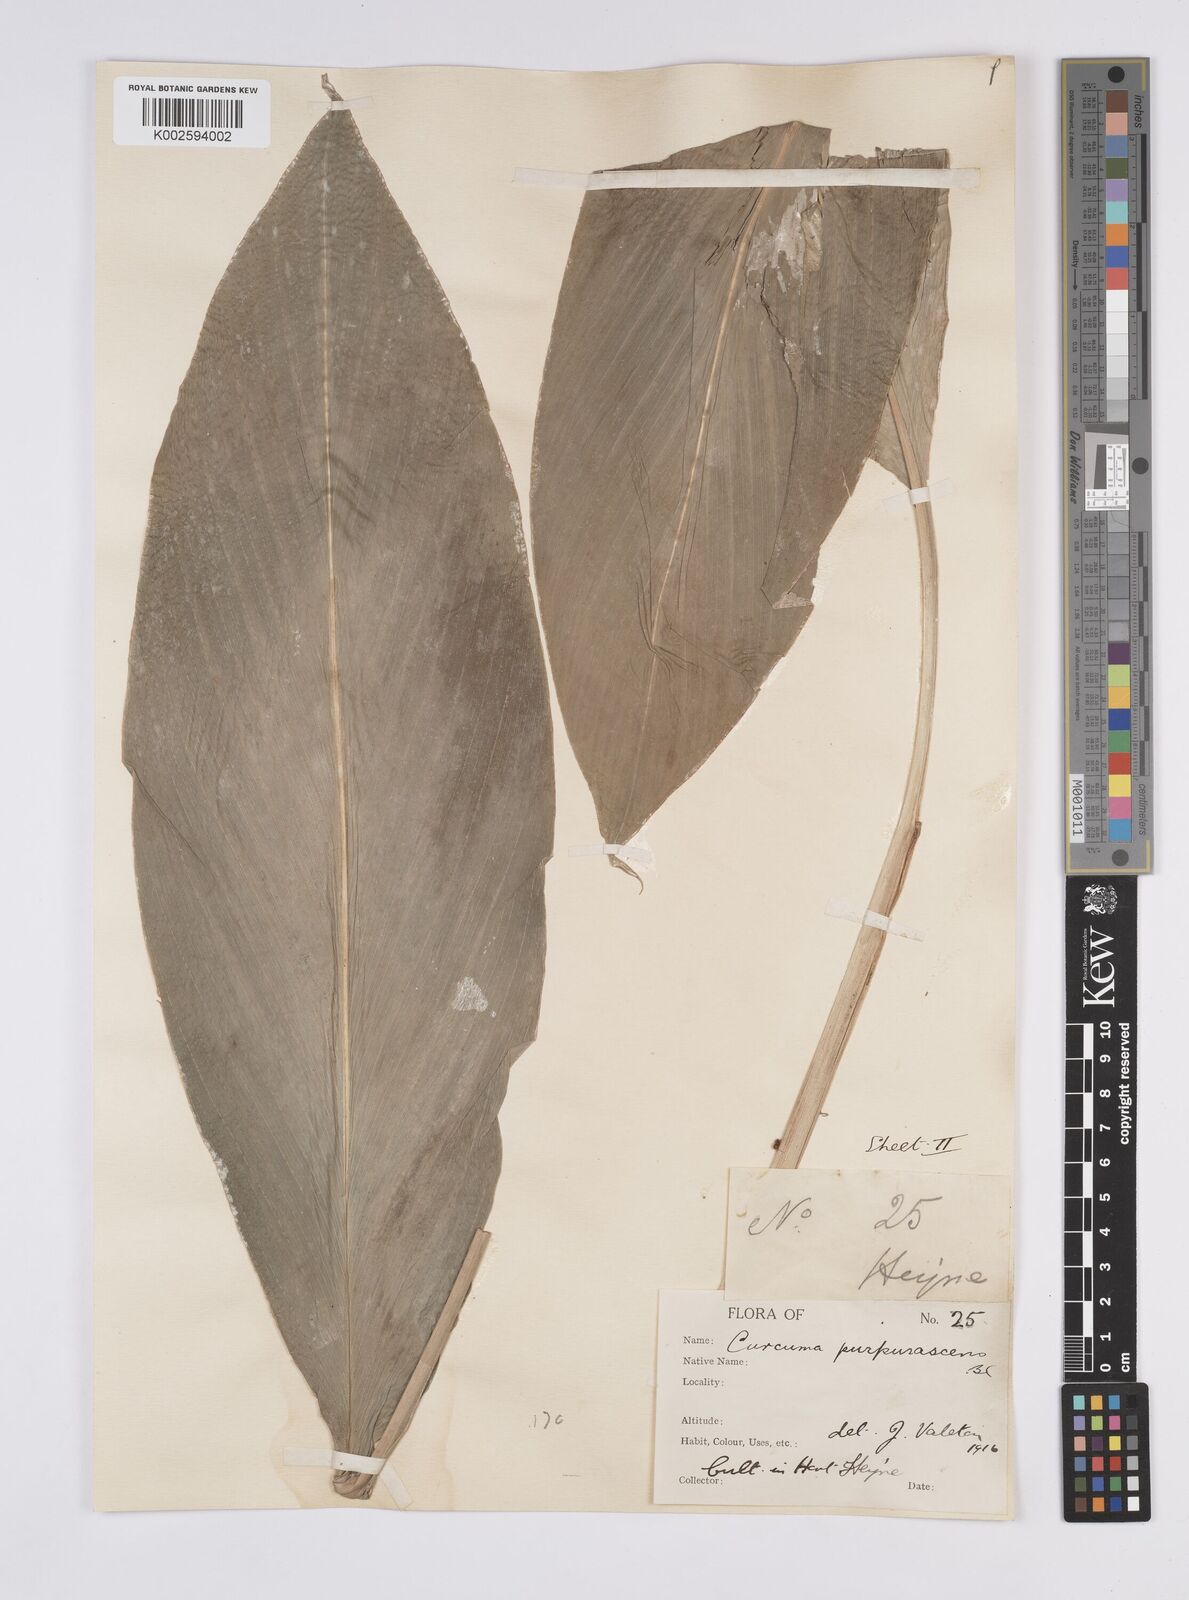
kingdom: Plantae
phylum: Tracheophyta
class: Liliopsida
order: Zingiberales
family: Zingiberaceae
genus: Curcuma
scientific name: Curcuma purpurascens
